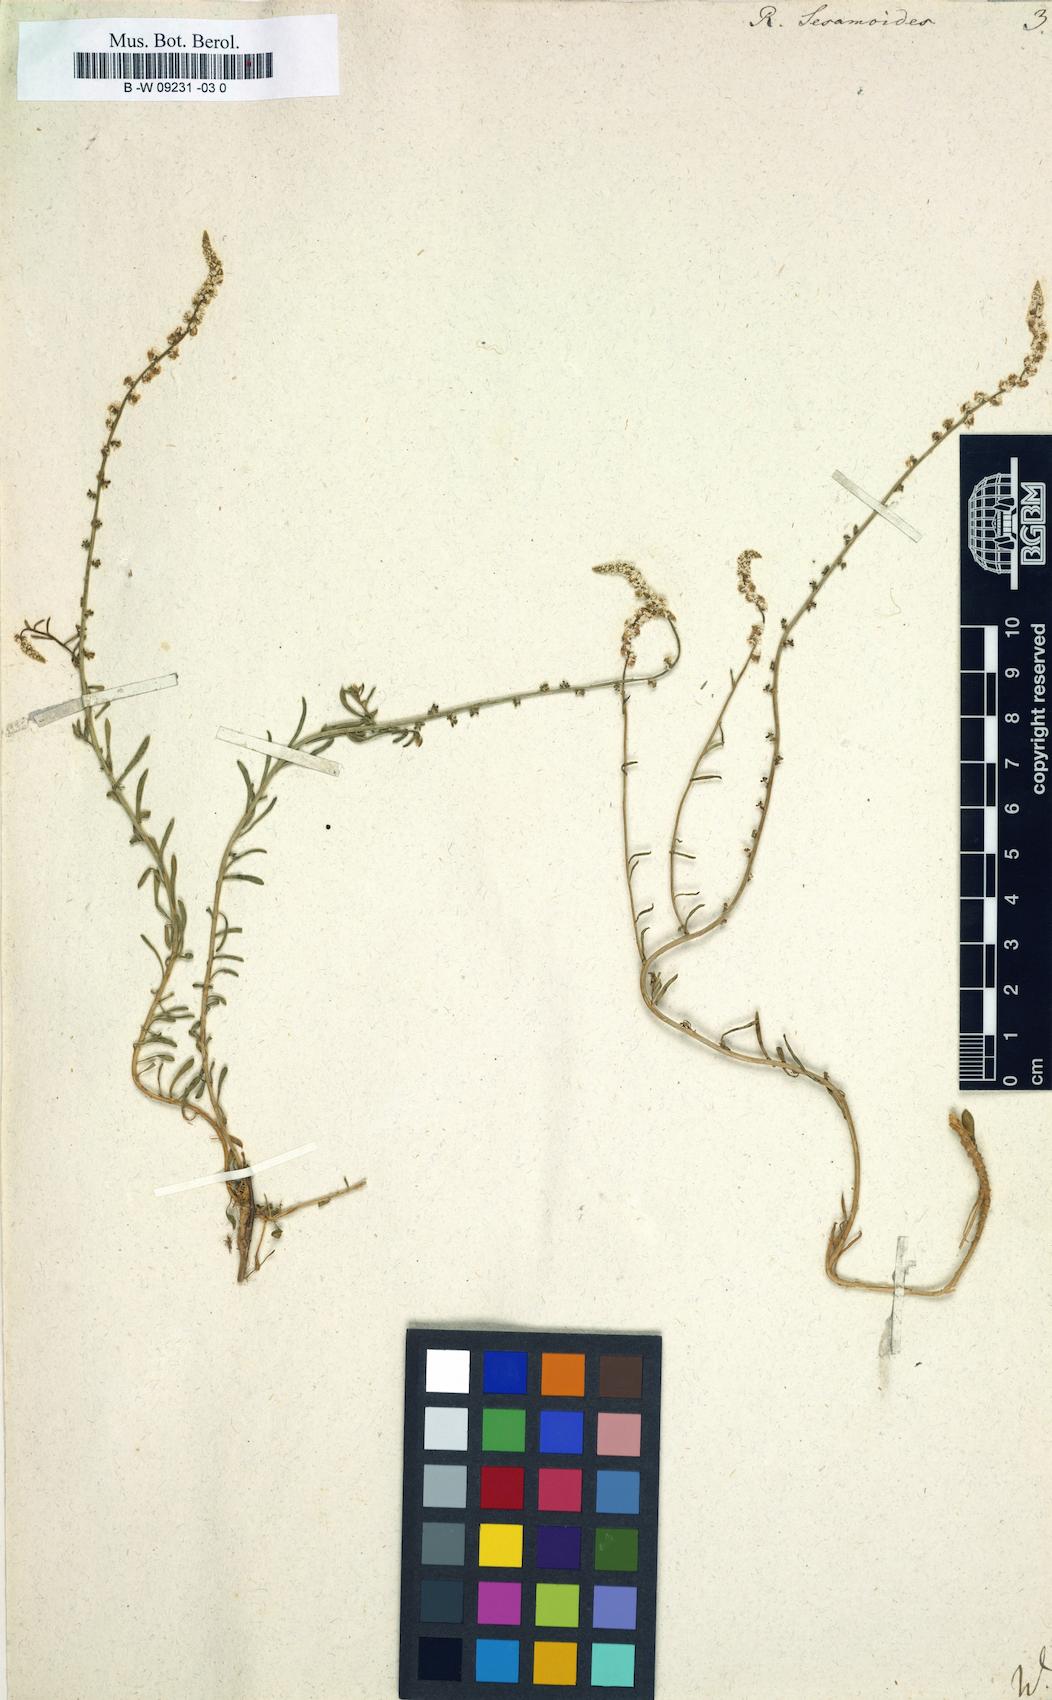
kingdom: Plantae
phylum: Tracheophyta
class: Magnoliopsida
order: Brassicales
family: Resedaceae
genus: Sesamoides
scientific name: Sesamoides
